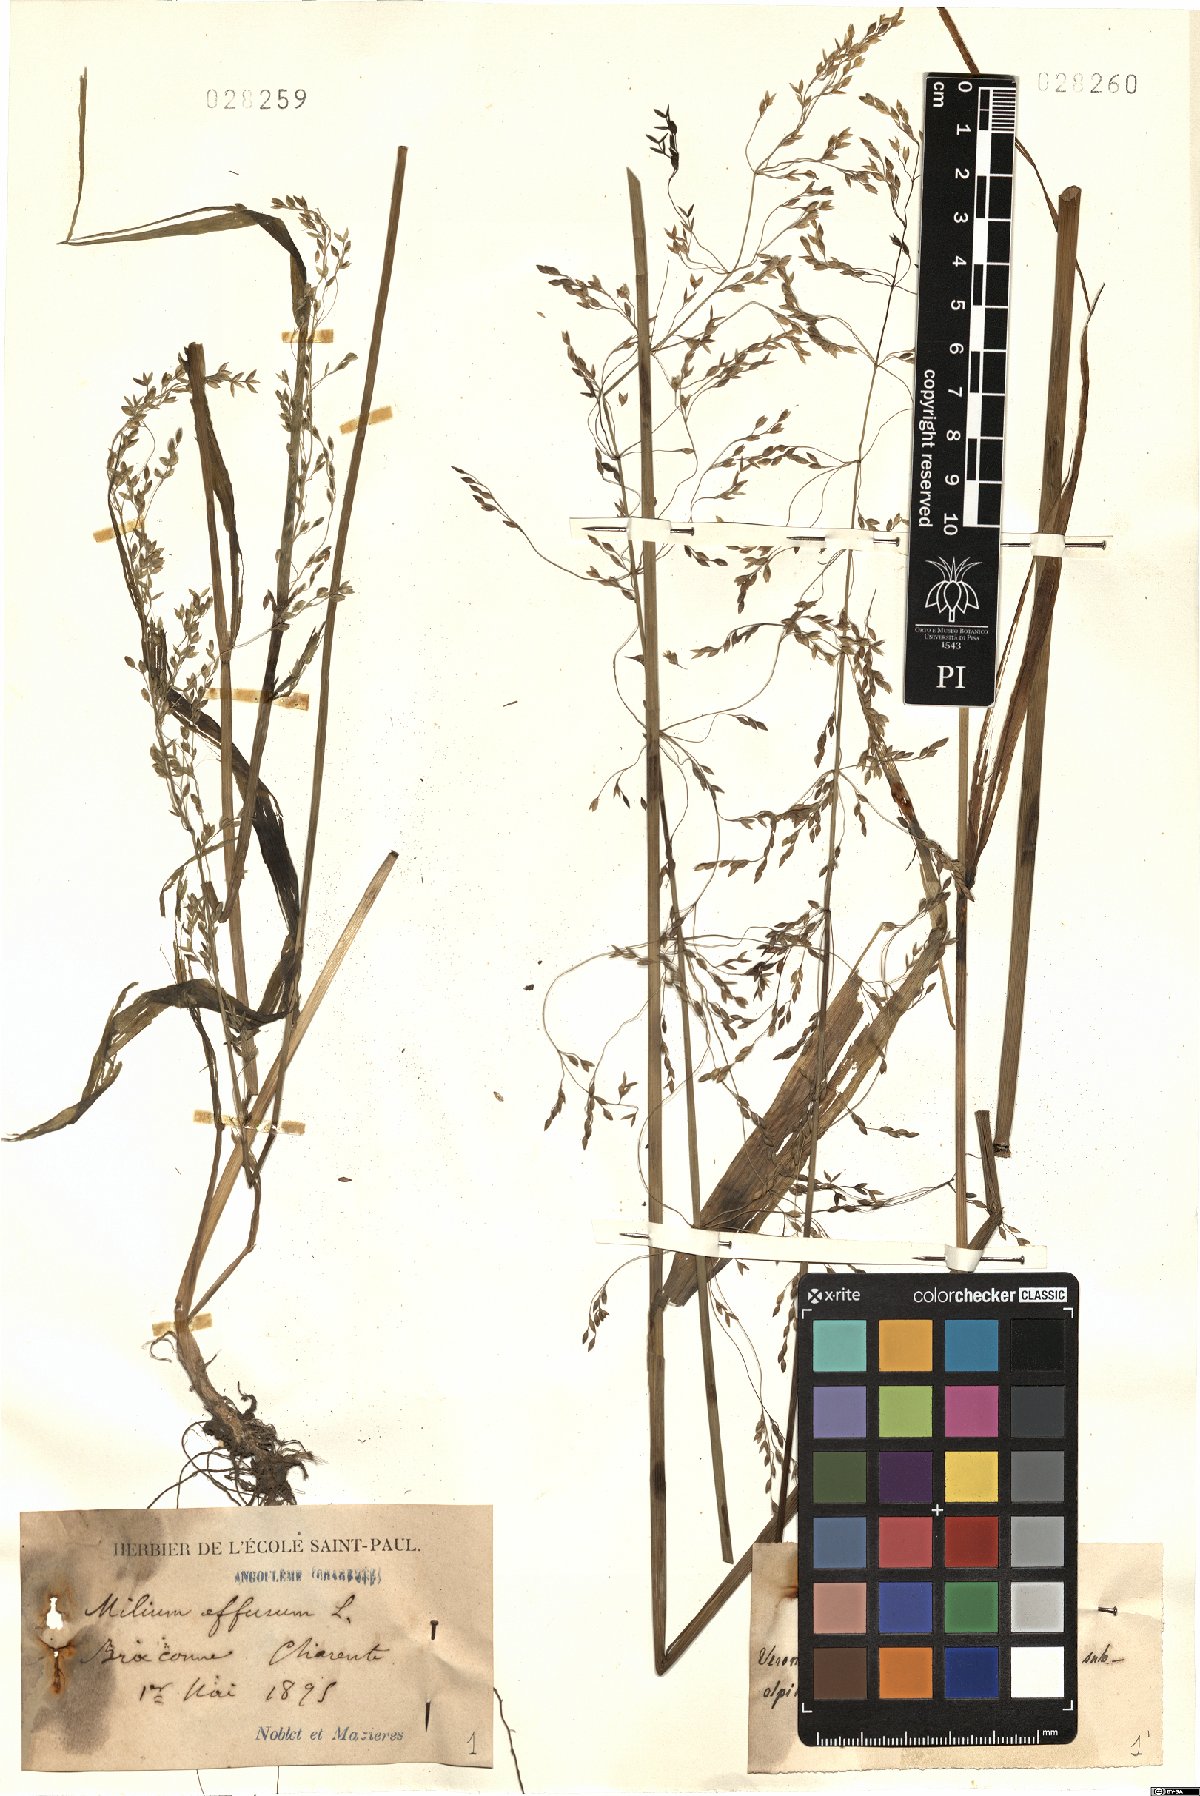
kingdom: Plantae
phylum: Tracheophyta
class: Liliopsida
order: Poales
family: Poaceae
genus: Milium
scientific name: Milium effusum
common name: Wood millet
